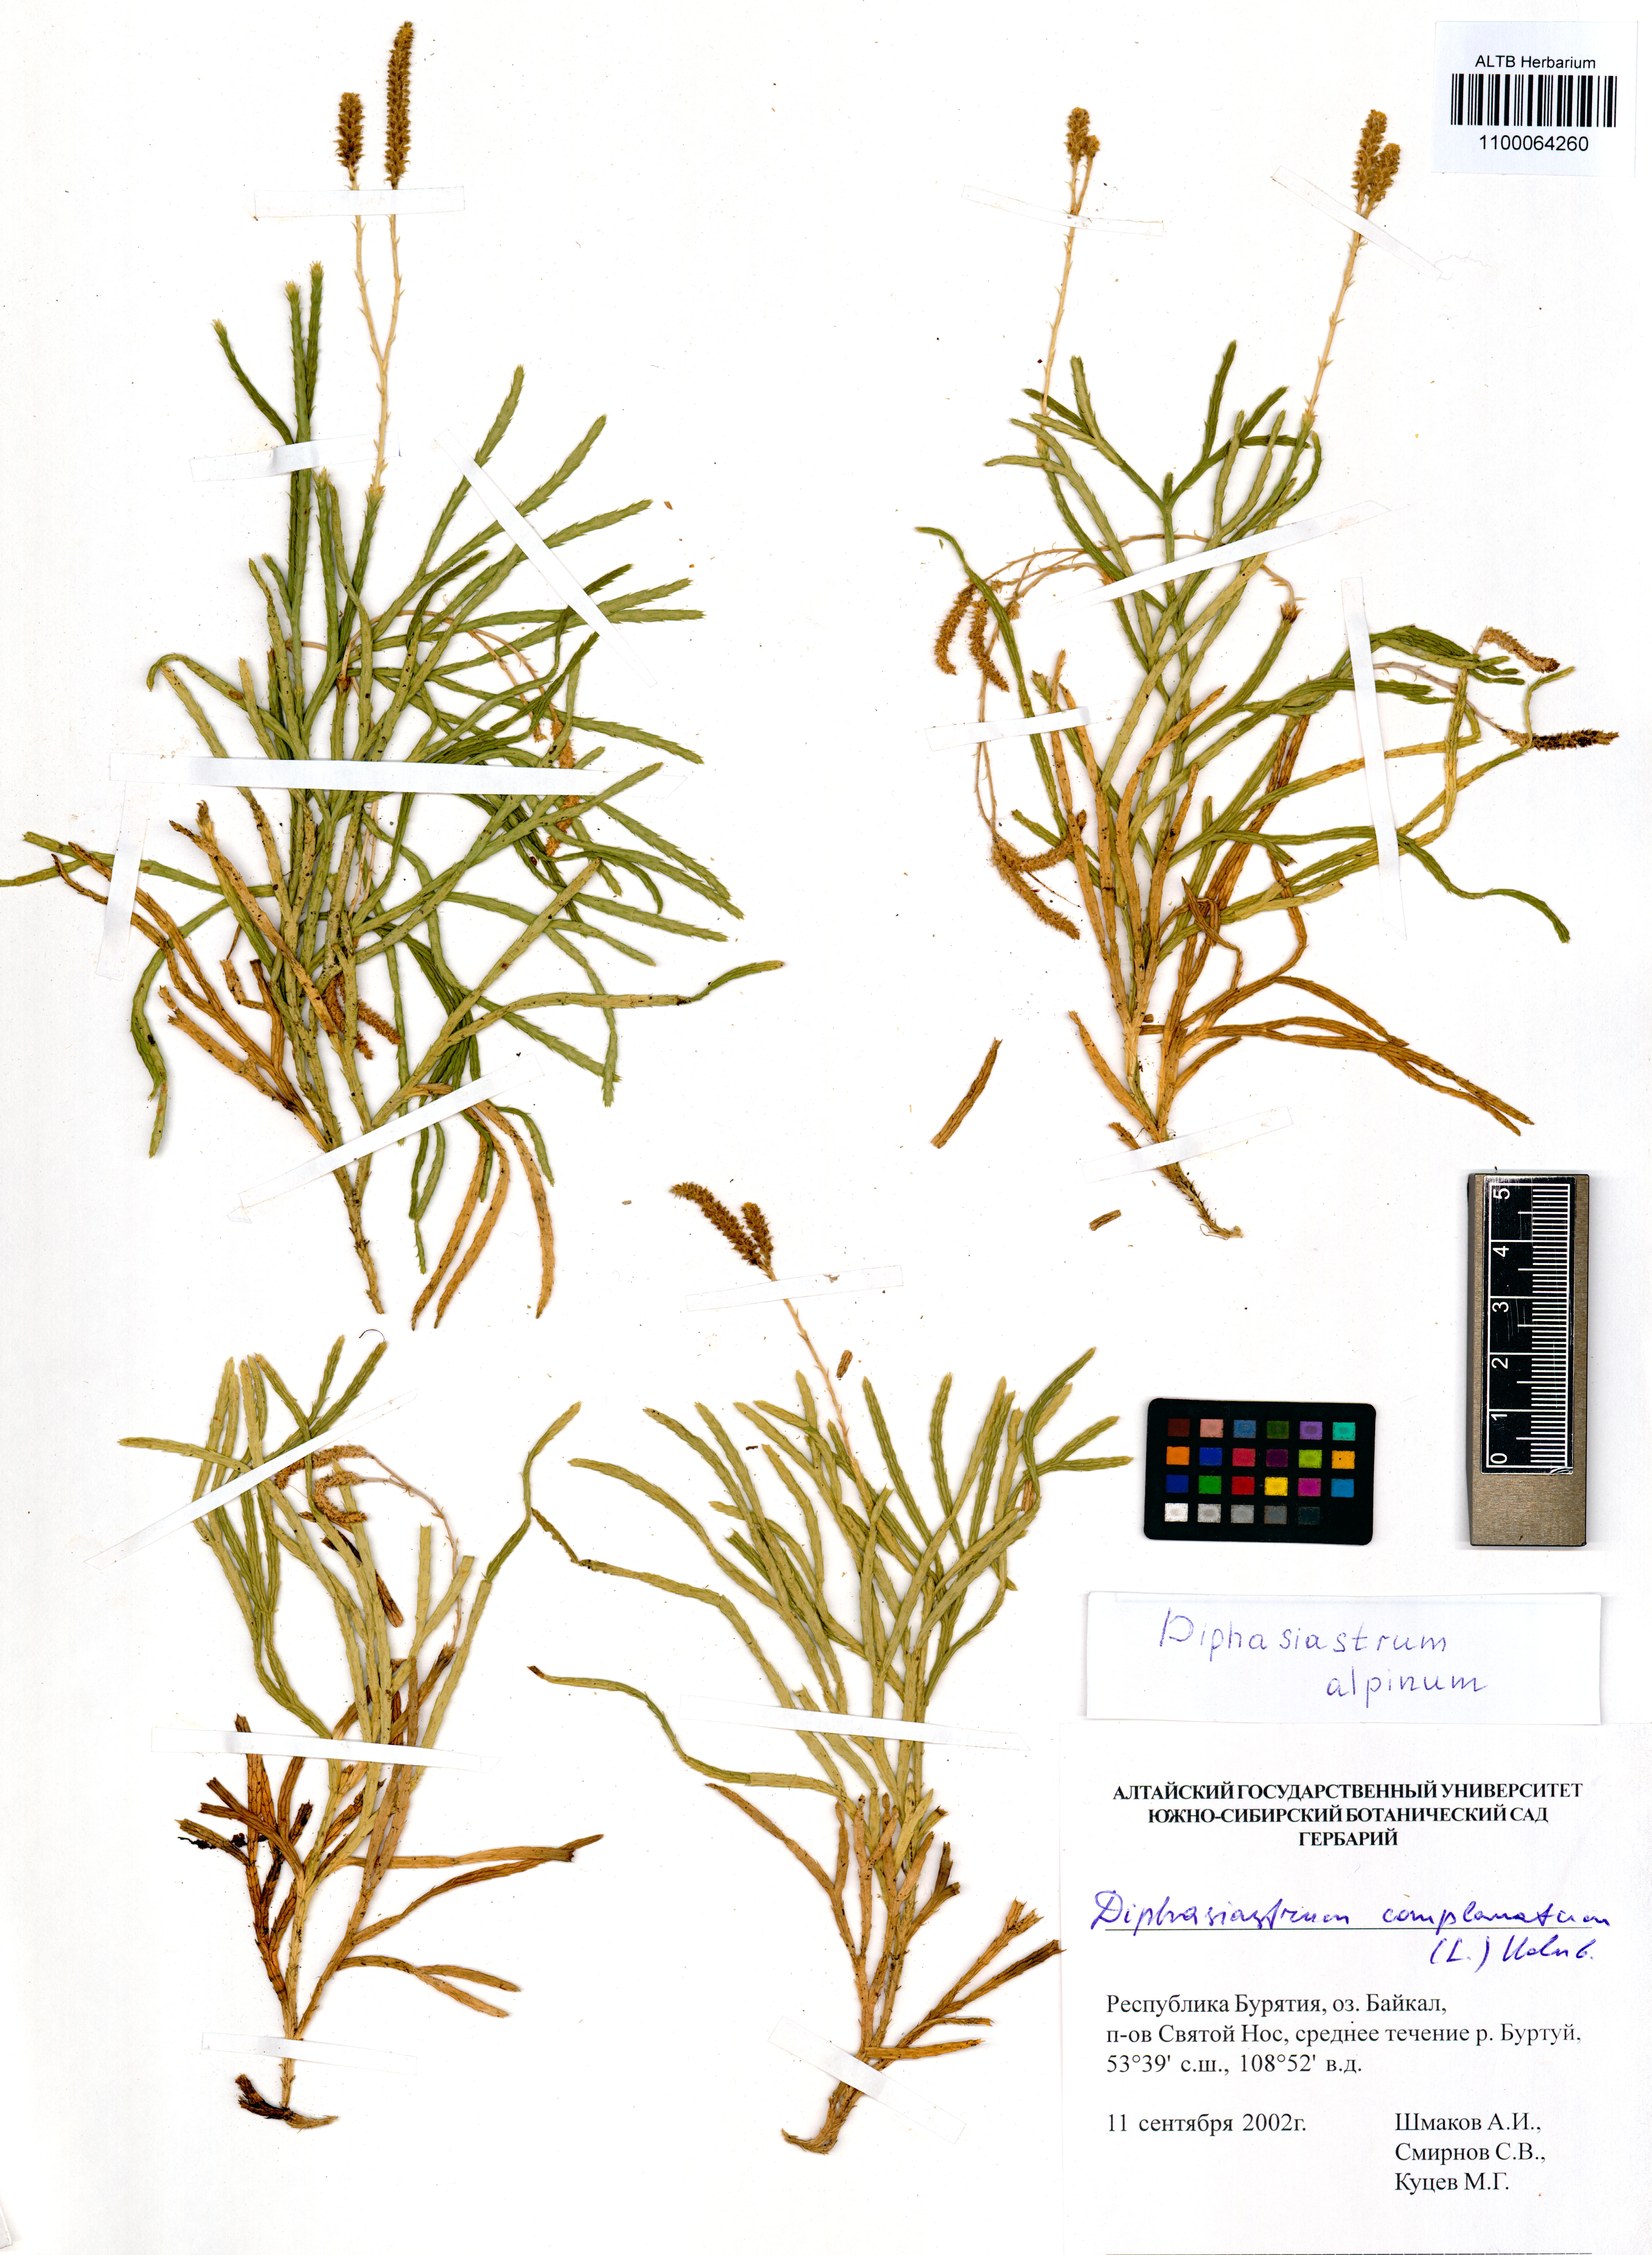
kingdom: Plantae
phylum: Tracheophyta
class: Lycopodiopsida
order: Lycopodiales
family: Lycopodiaceae
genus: Diphasiastrum
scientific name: Diphasiastrum alpinum
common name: Alpine clubmoss
